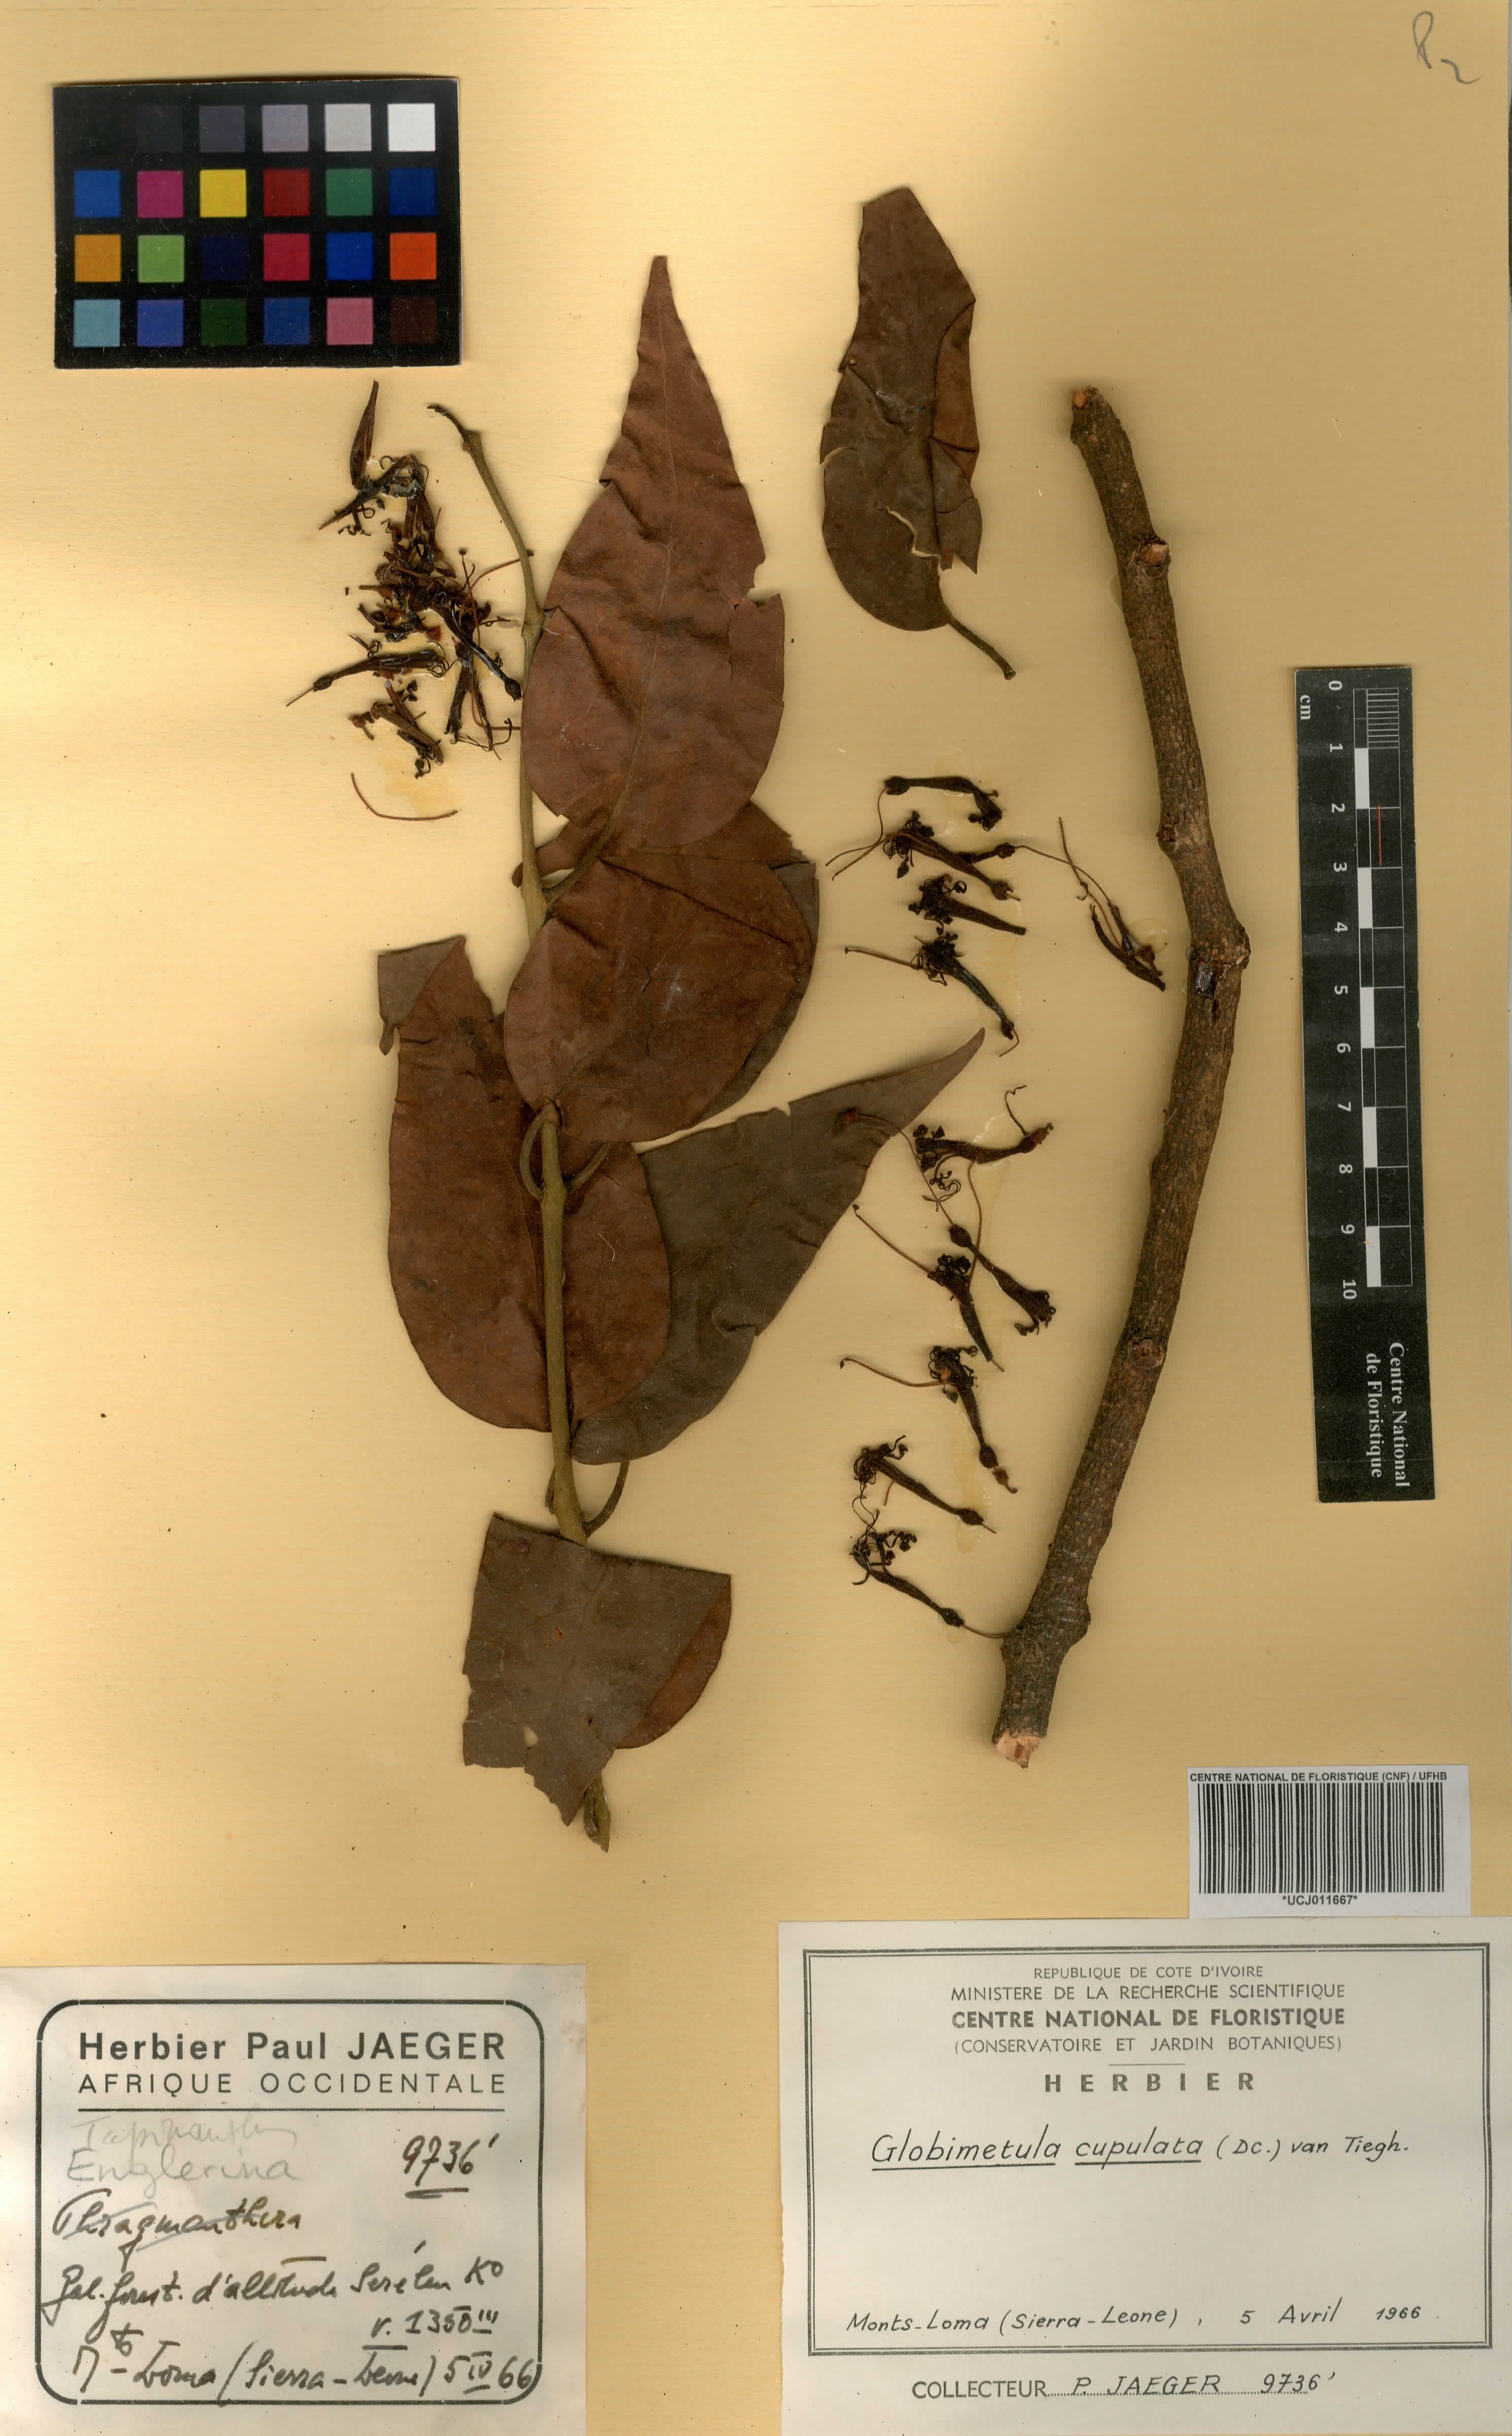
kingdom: Plantae
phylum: Tracheophyta
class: Magnoliopsida
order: Santalales
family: Loranthaceae
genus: Globimetula
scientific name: Globimetula cupulata
